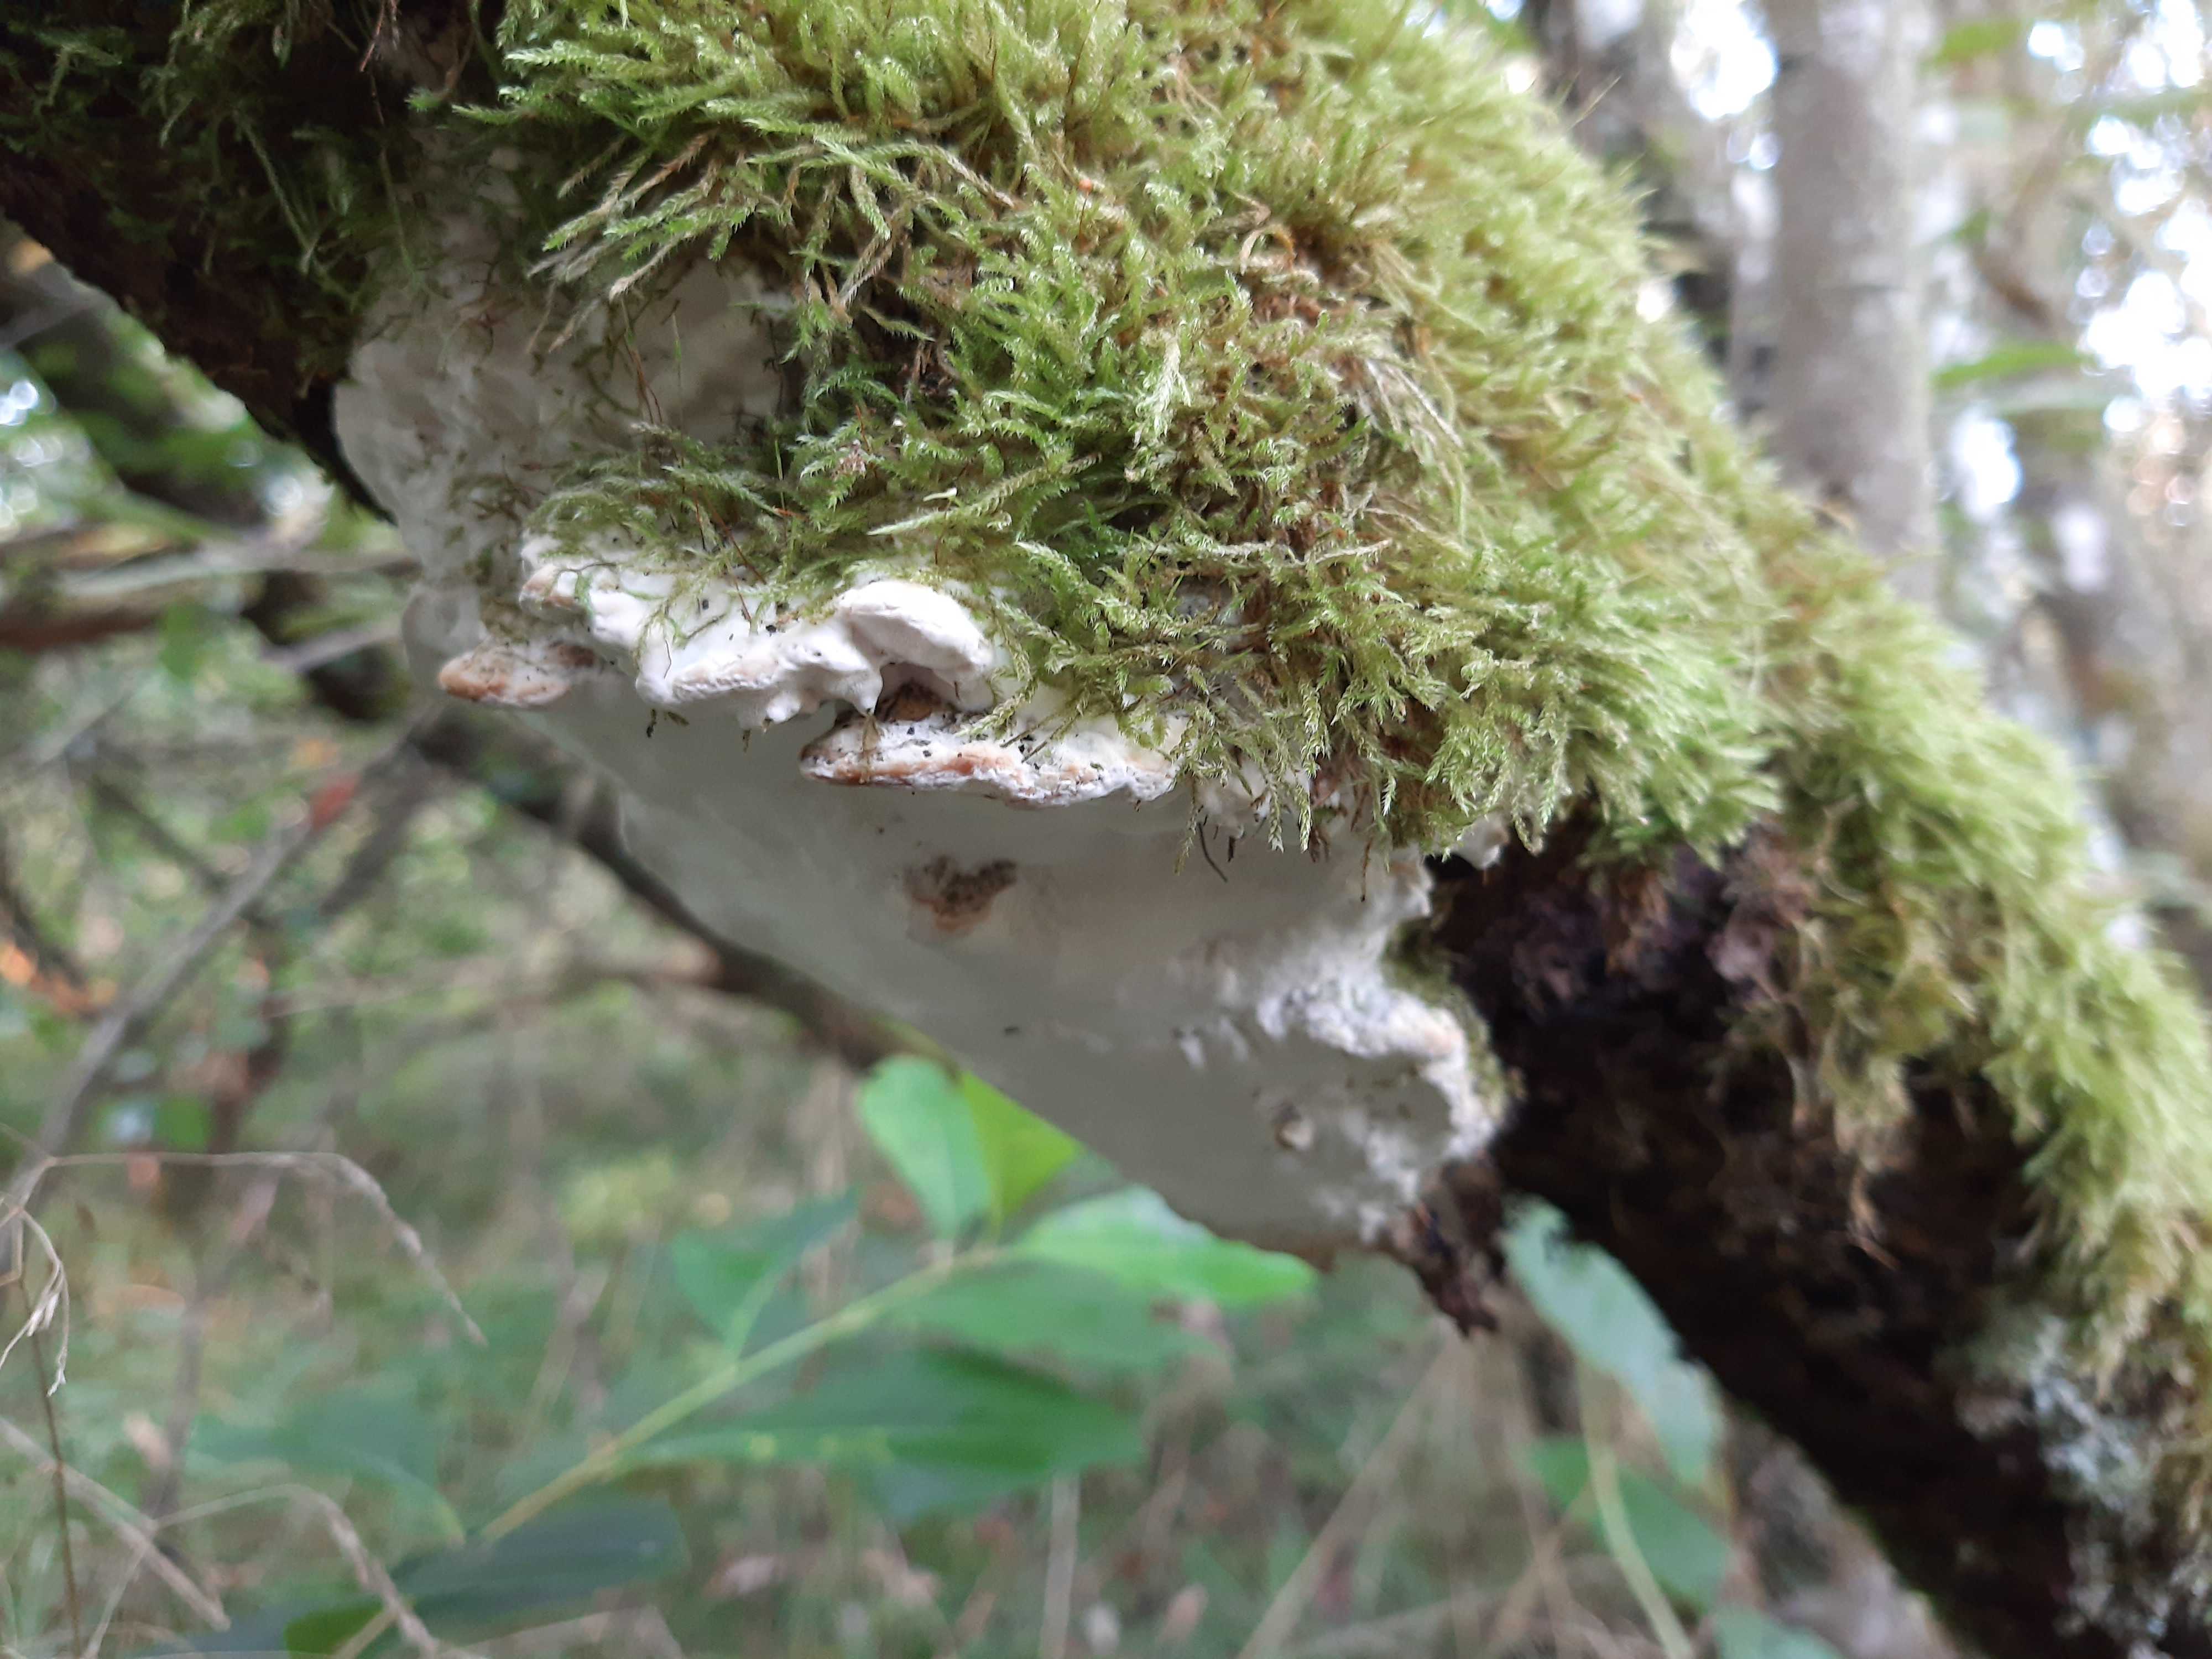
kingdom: Fungi
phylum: Basidiomycota
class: Agaricomycetes
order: Hymenochaetales
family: Oxyporaceae
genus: Oxyporus
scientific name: Oxyporus populinus
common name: sammenvokset trylleporesvamp
